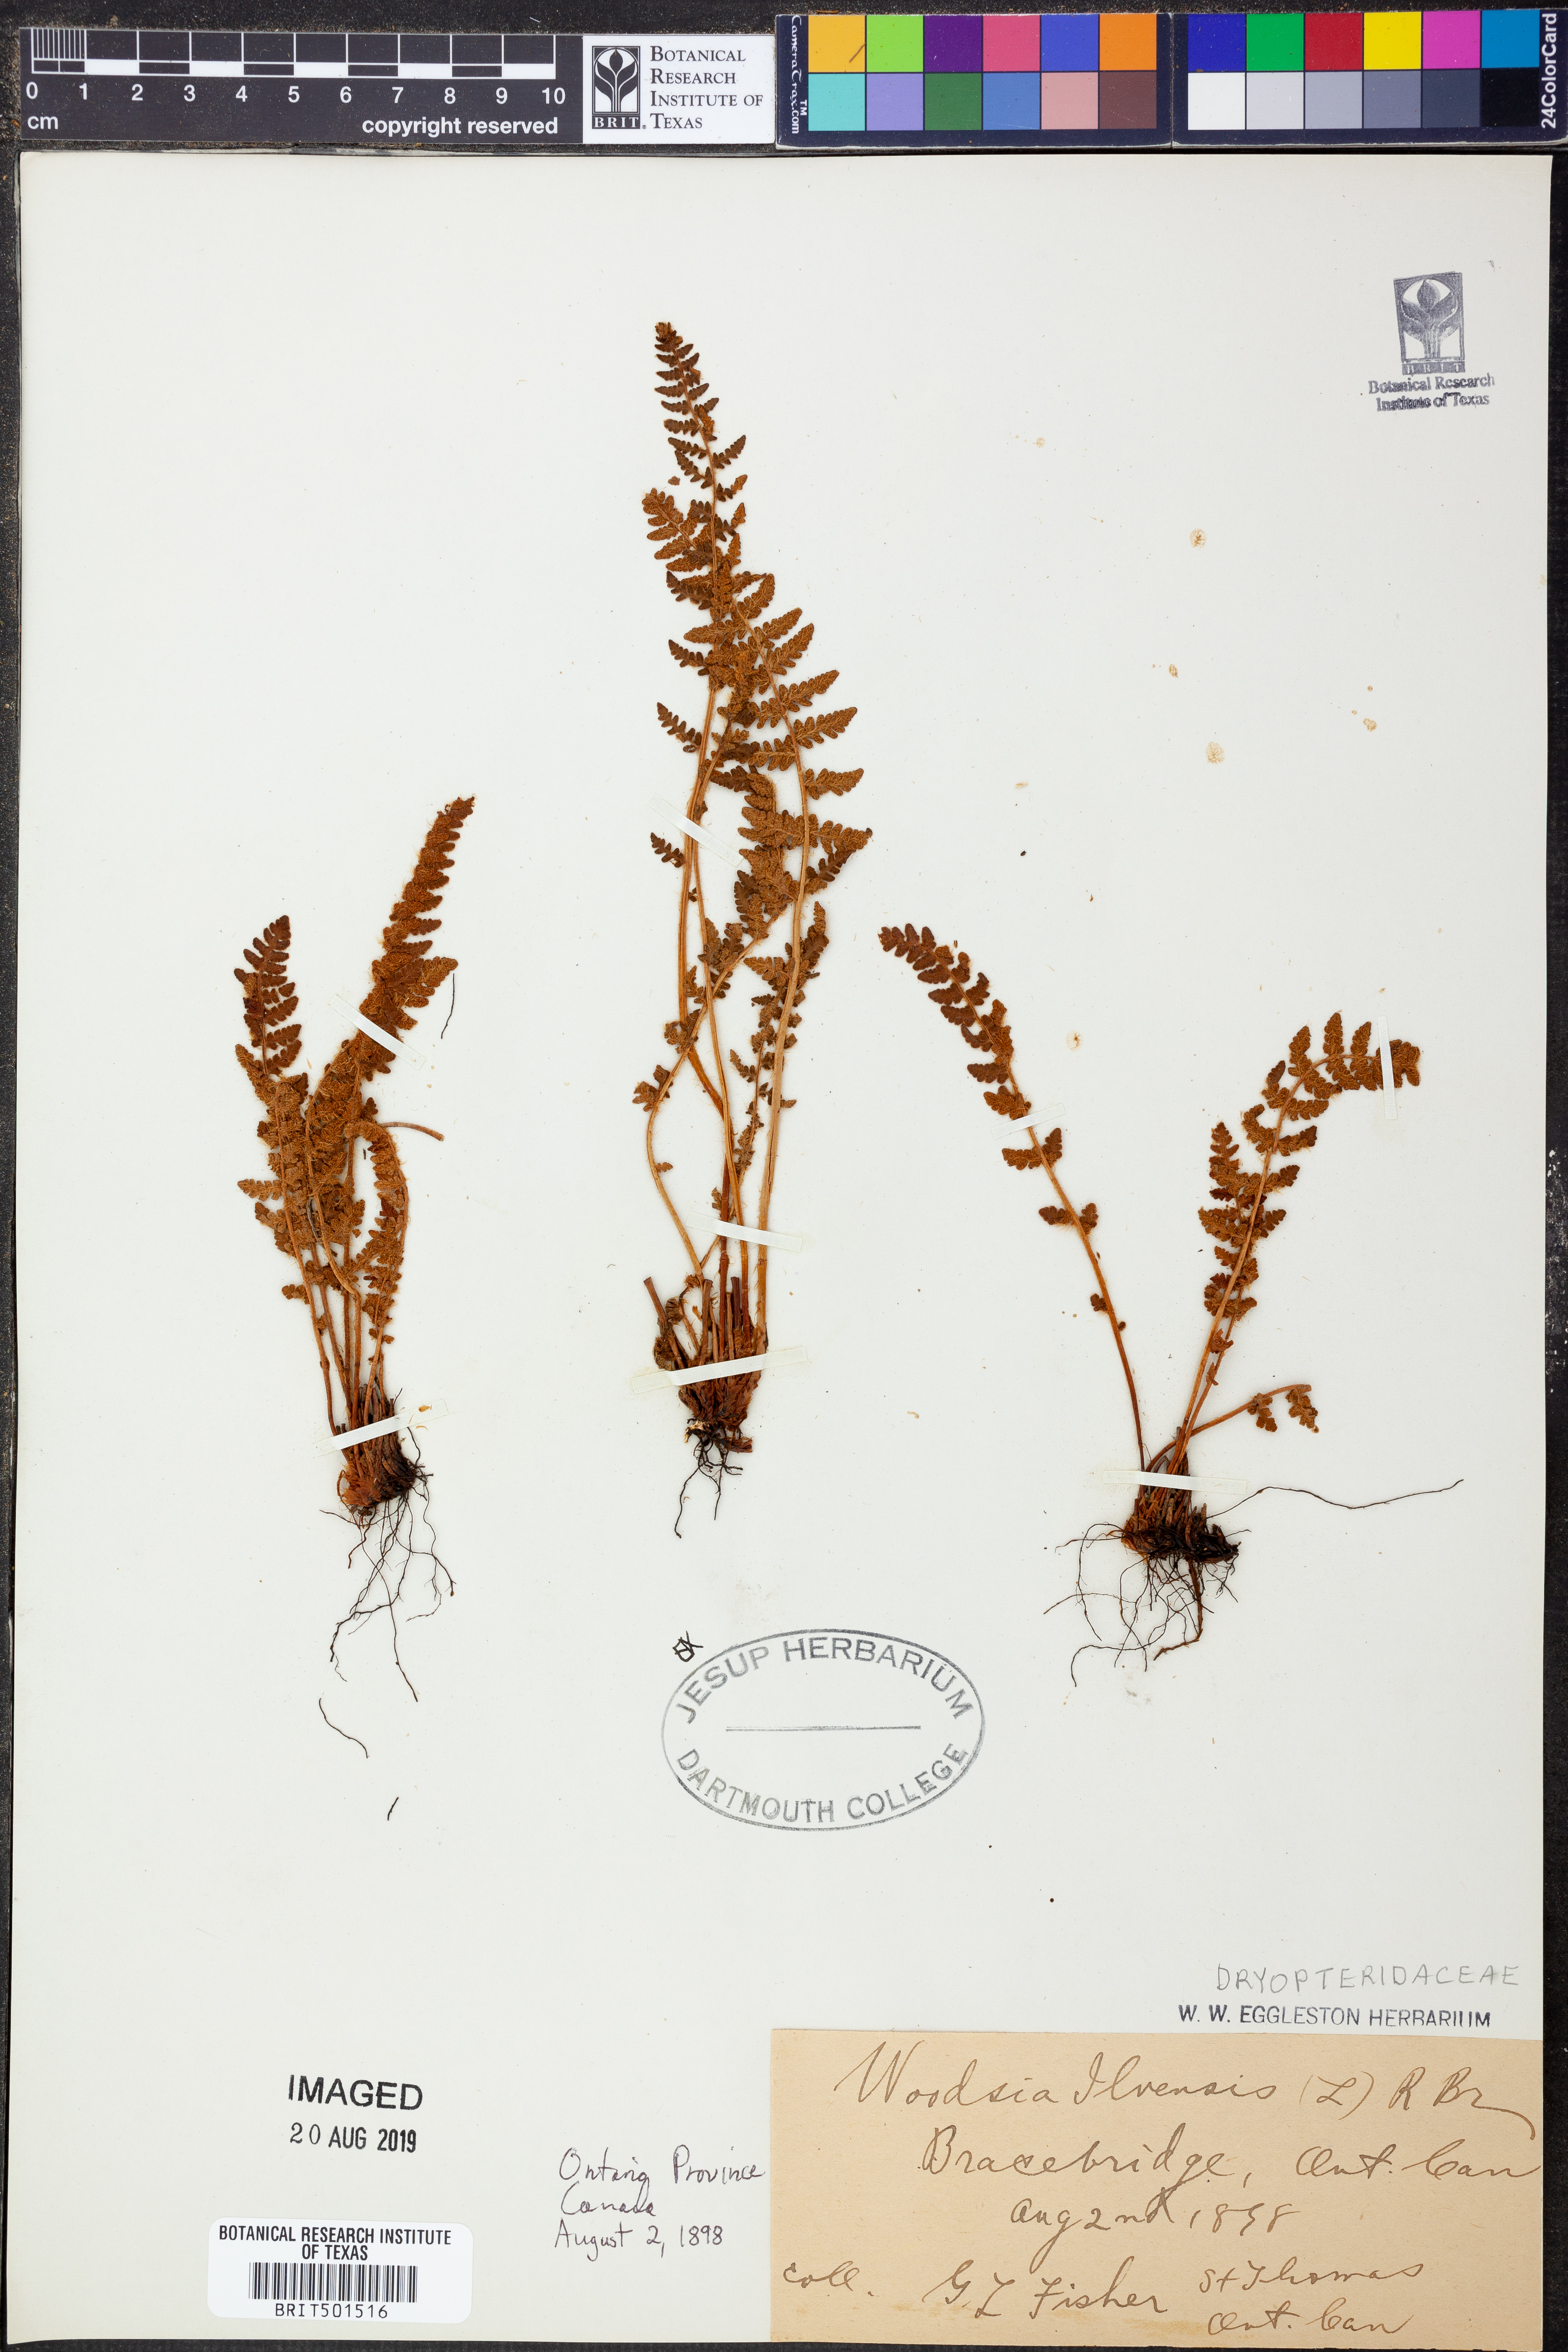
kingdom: Plantae
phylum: Tracheophyta
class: Polypodiopsida
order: Polypodiales
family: Woodsiaceae
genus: Woodsia
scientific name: Woodsia ilvensis
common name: Fragrant woodsia
